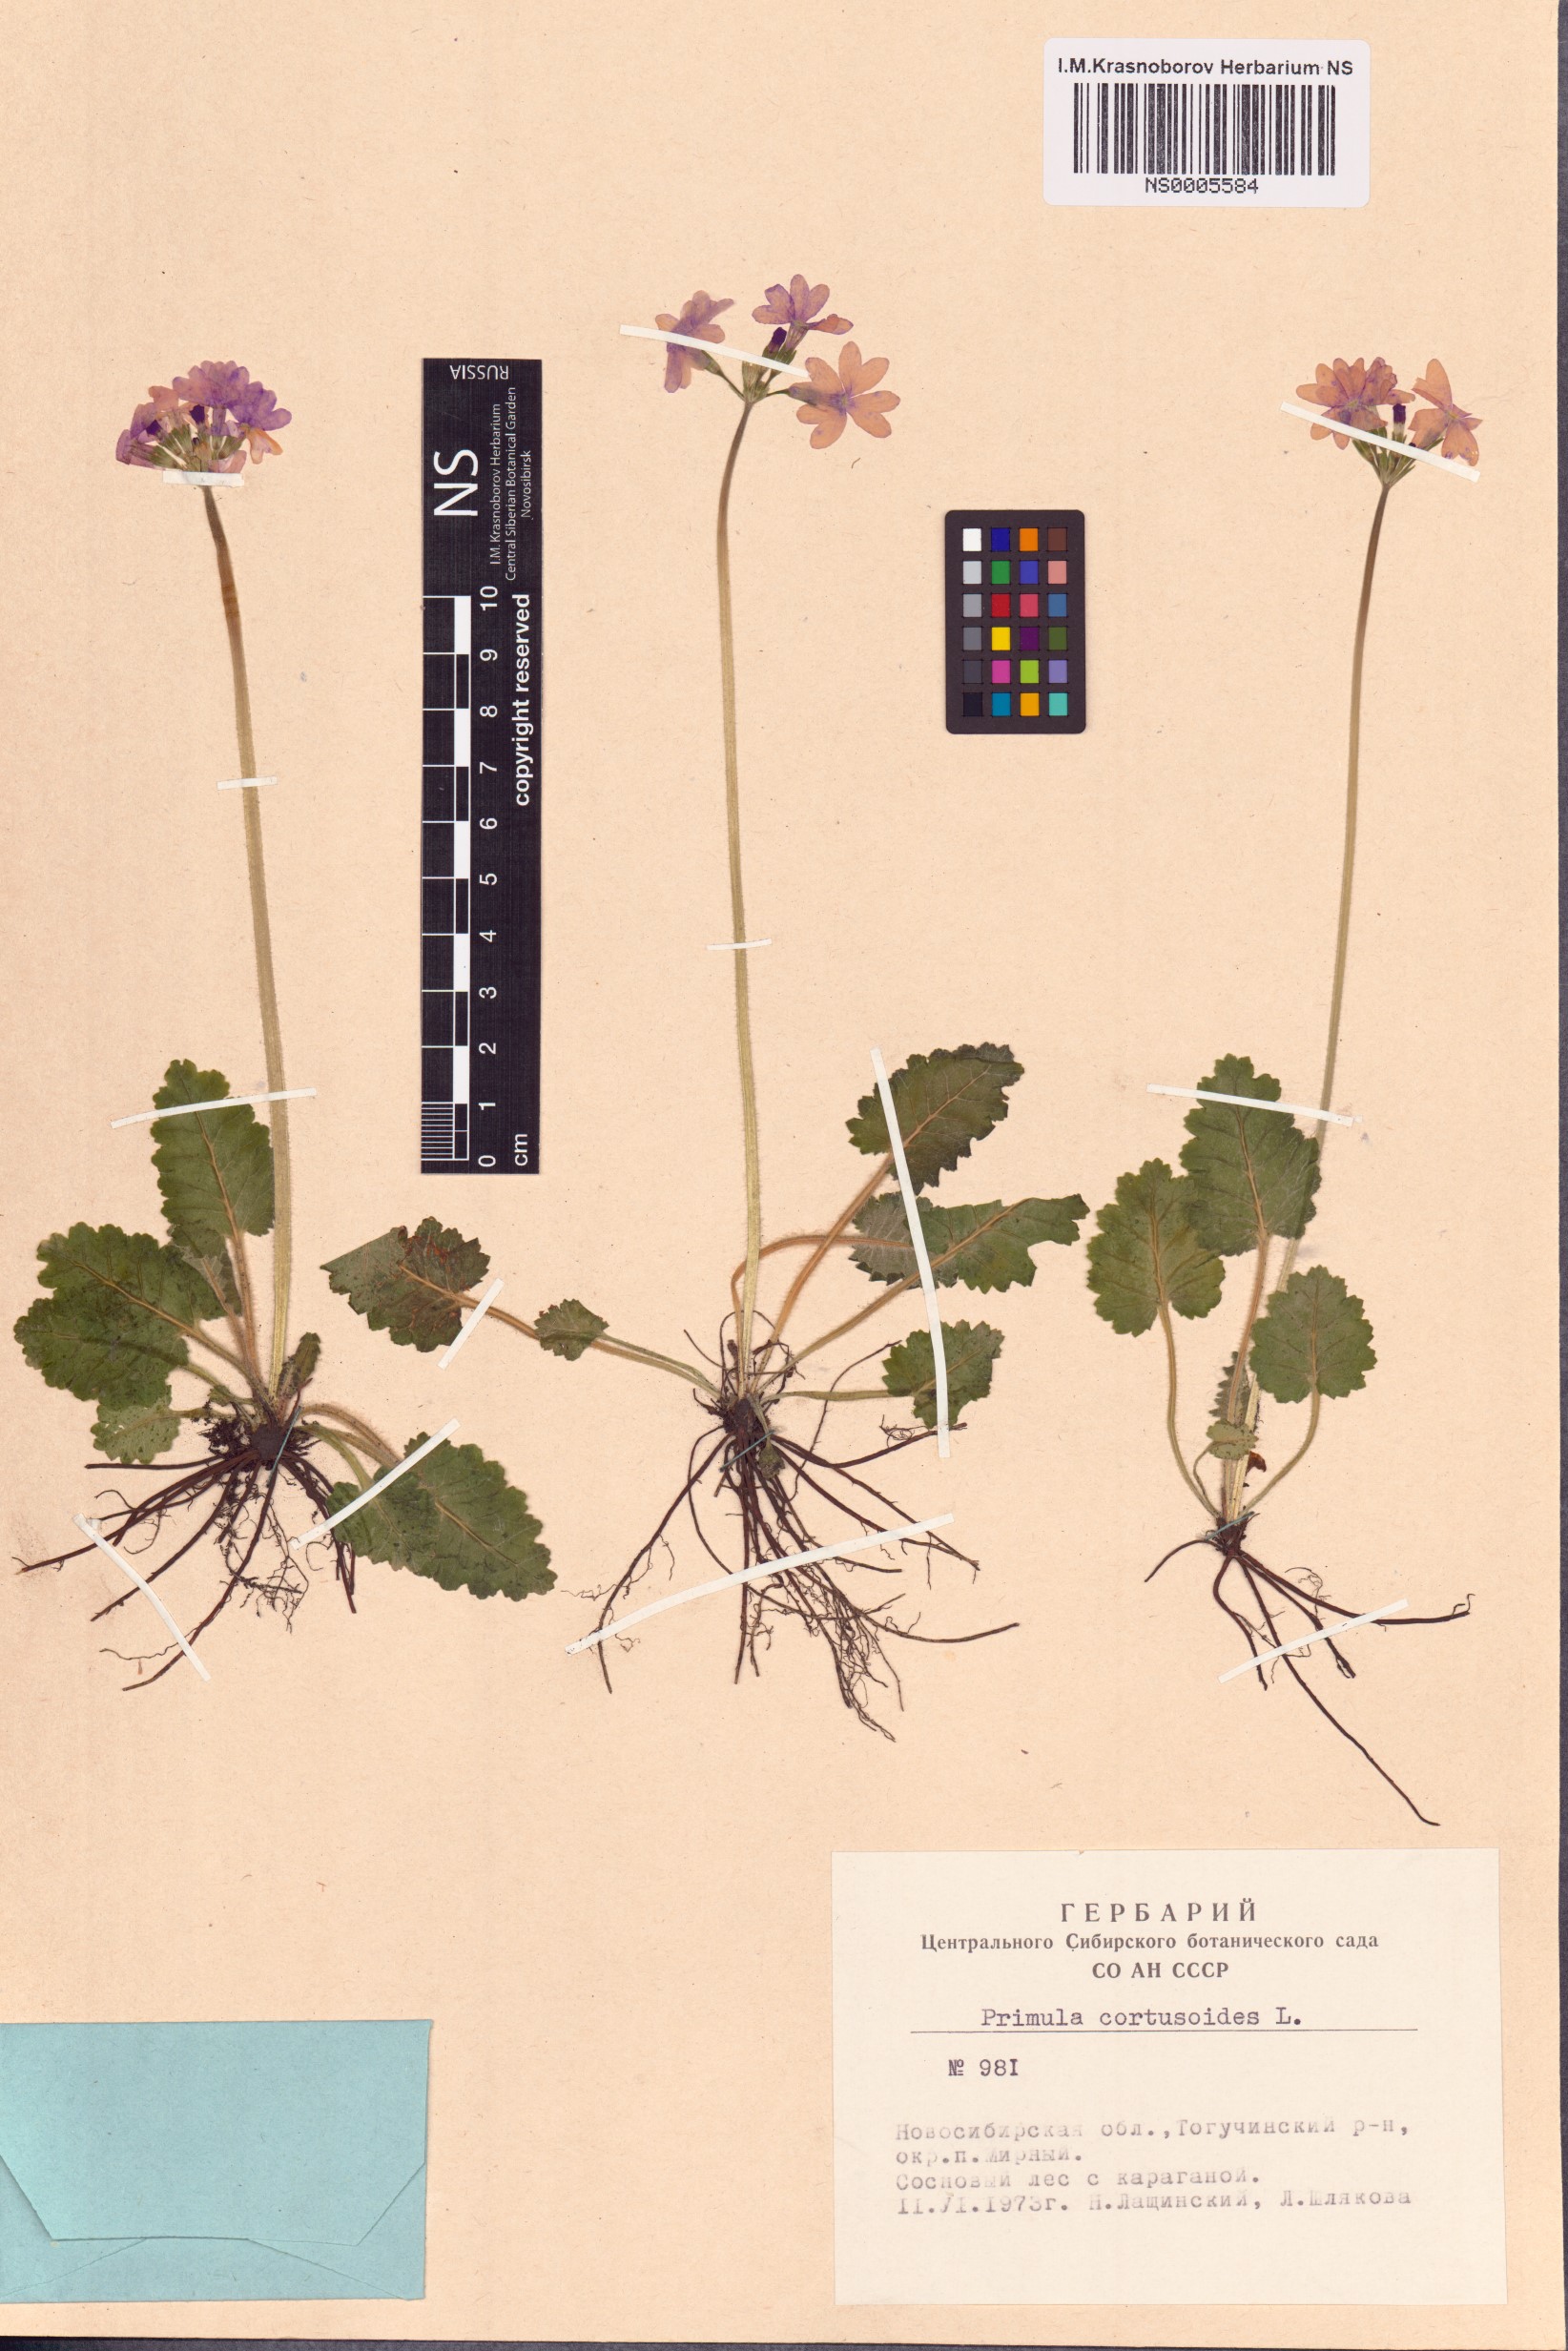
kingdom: Plantae
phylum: Tracheophyta
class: Magnoliopsida
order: Ericales
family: Primulaceae
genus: Primula
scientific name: Primula cortusoides
